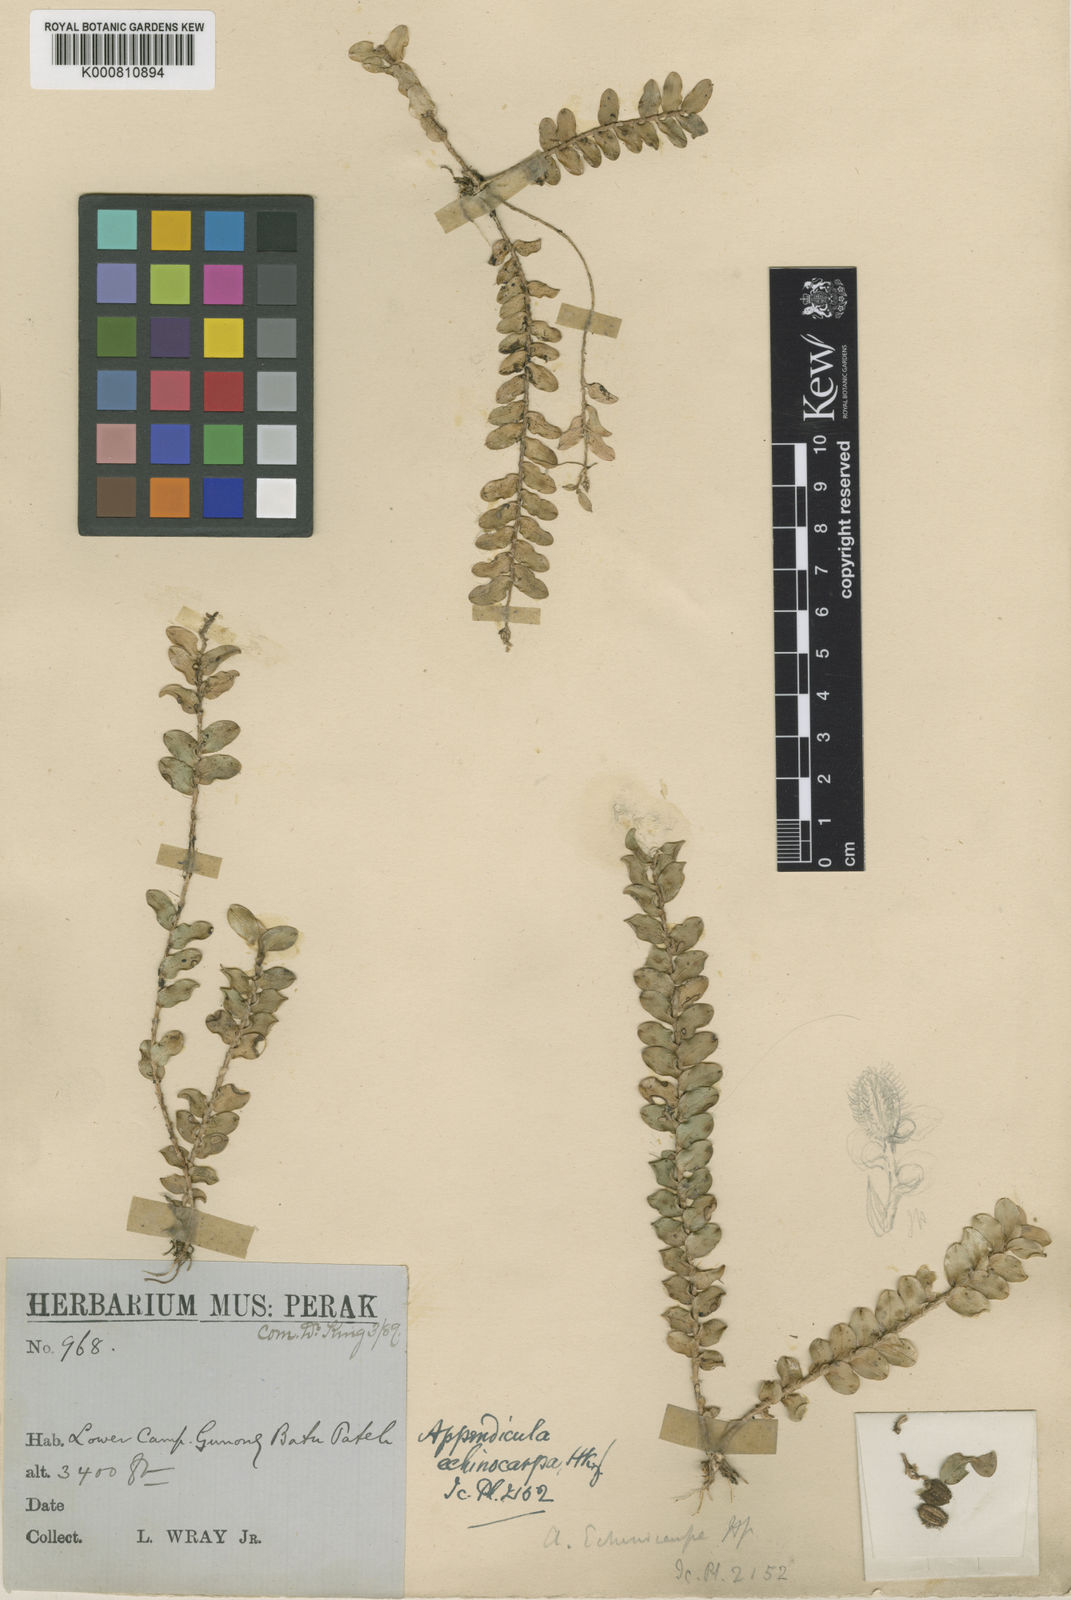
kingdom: Plantae
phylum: Tracheophyta
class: Liliopsida
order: Asparagales
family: Orchidaceae
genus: Podochilus
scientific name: Podochilus muricatus
